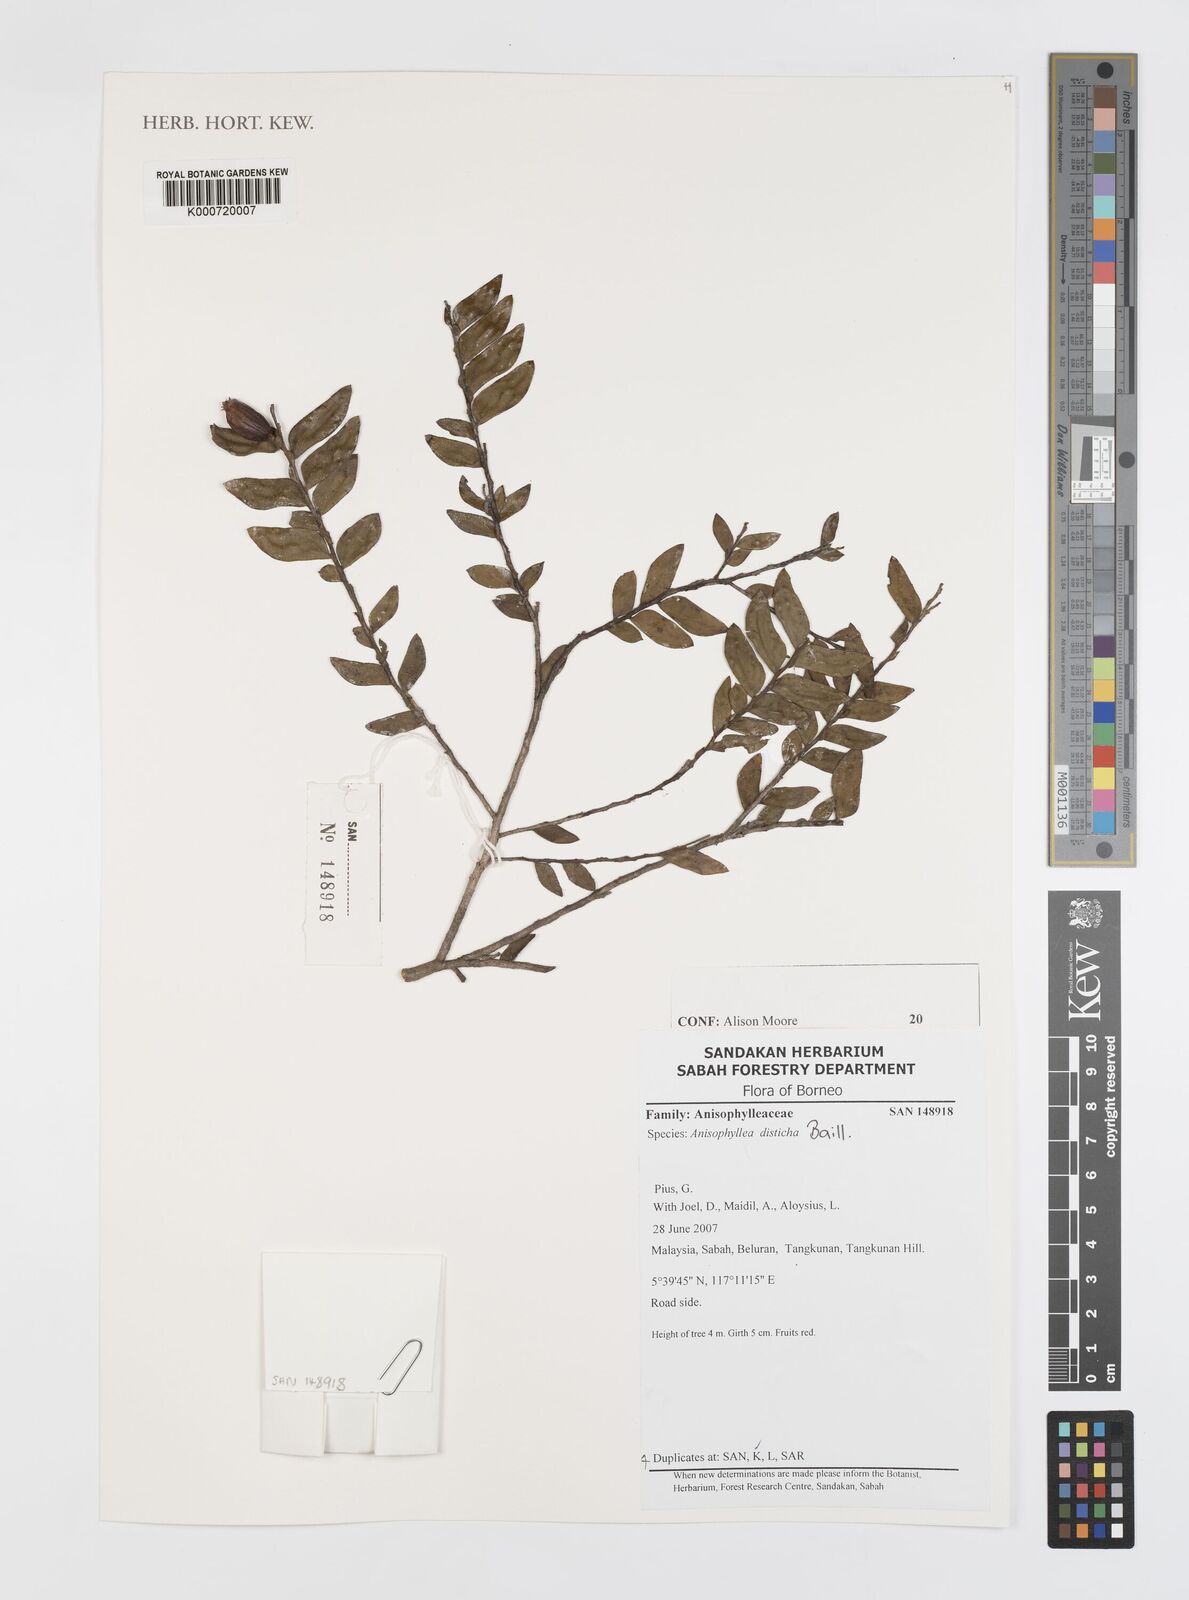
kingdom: Plantae
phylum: Tracheophyta
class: Magnoliopsida
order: Cucurbitales
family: Anisophylleaceae
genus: Anisophyllea
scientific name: Anisophyllea disticha
